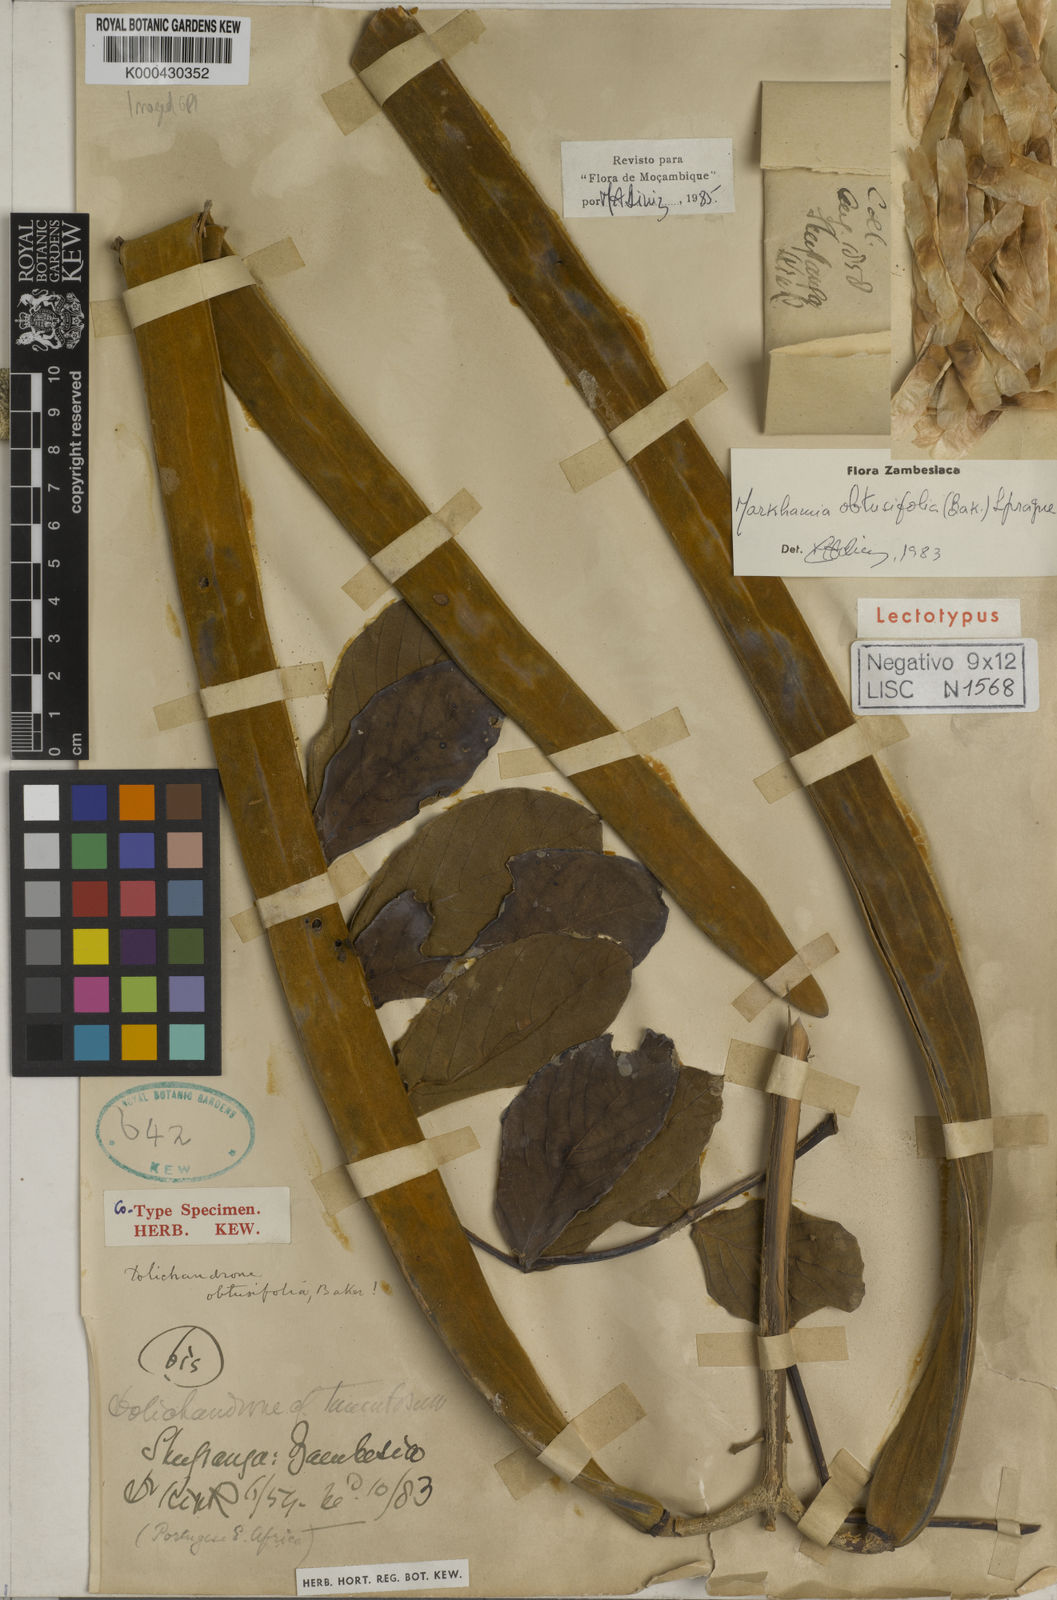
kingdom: Plantae
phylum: Tracheophyta
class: Magnoliopsida
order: Lamiales
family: Bignoniaceae
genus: Markhamia
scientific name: Markhamia obtusifolia
